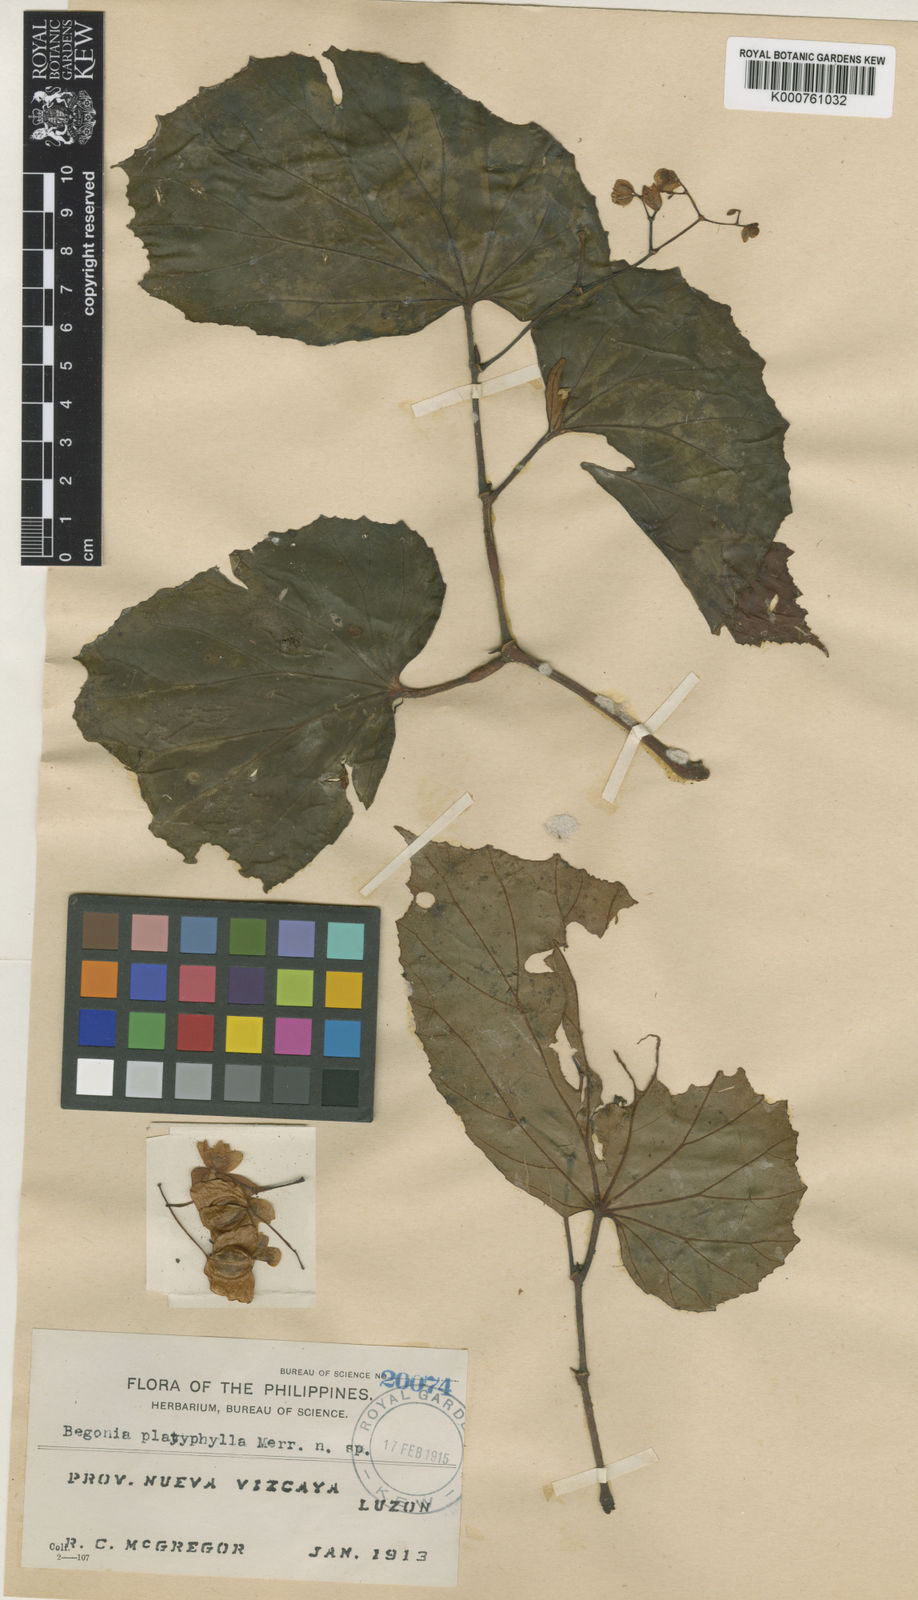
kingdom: Plantae
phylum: Tracheophyta
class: Magnoliopsida
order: Cucurbitales
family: Begoniaceae
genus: Begonia
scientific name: Begonia platyphylla
